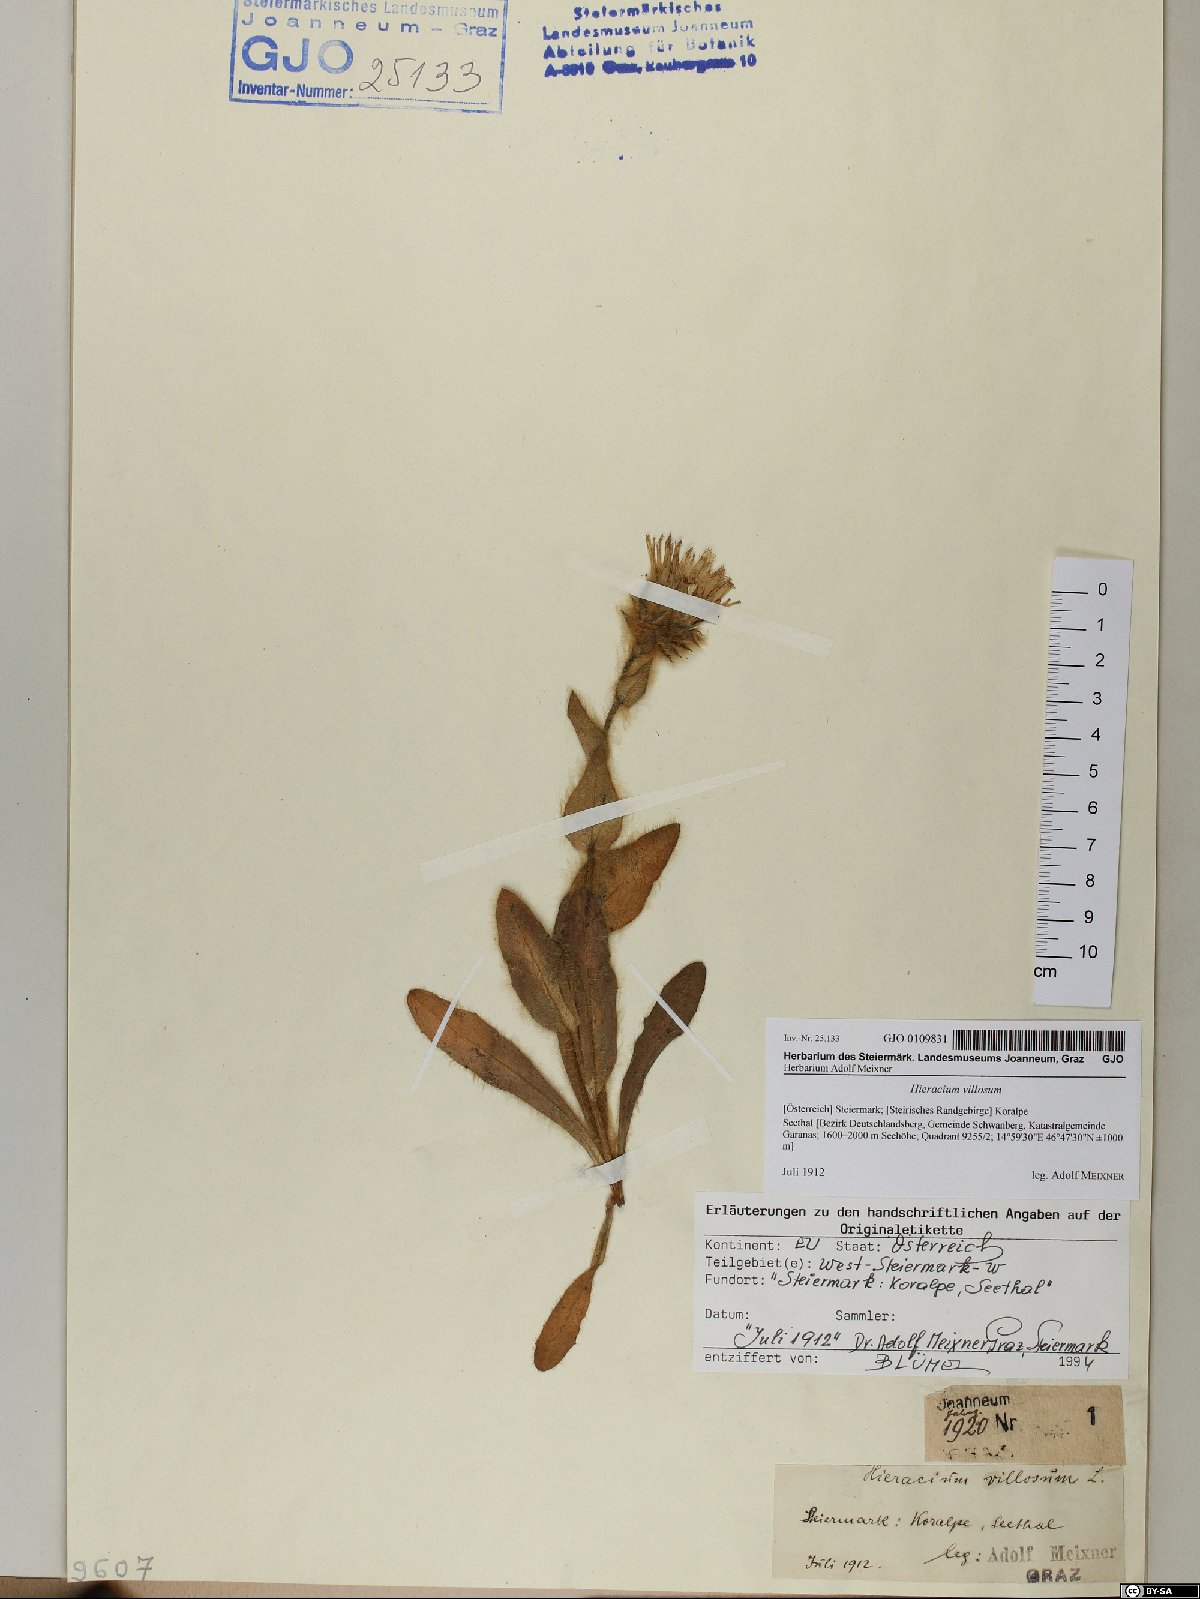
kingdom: Plantae
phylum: Tracheophyta
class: Magnoliopsida
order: Asterales
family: Asteraceae
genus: Hieracium
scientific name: Hieracium villosum
